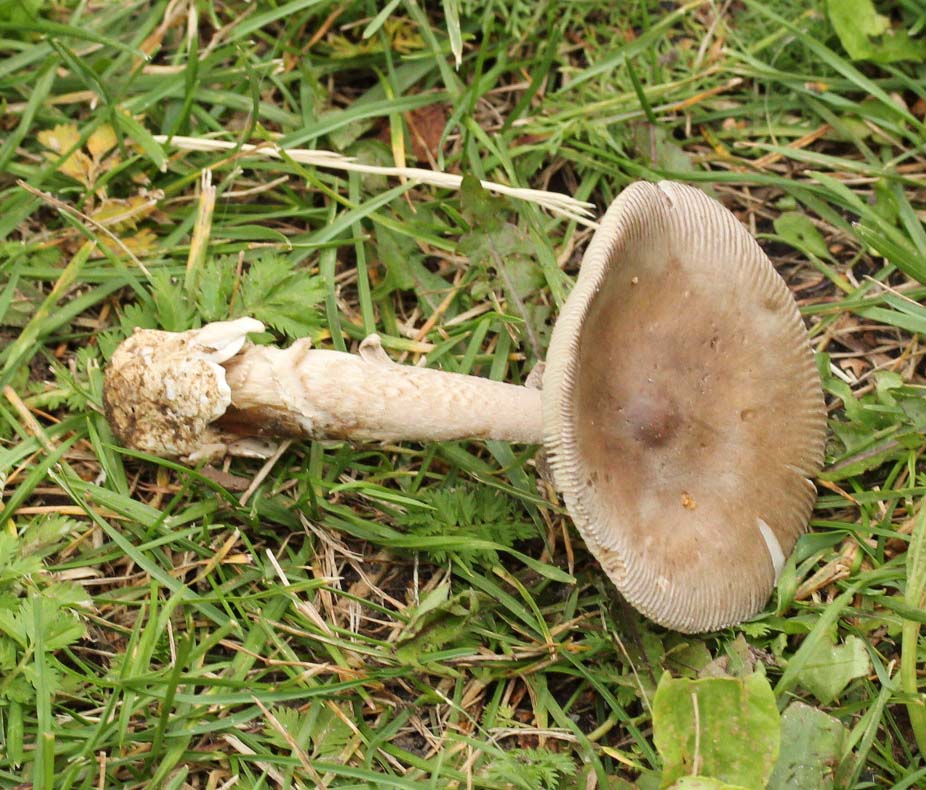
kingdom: Fungi
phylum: Basidiomycota
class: Agaricomycetes
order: Agaricales
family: Amanitaceae
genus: Amanita
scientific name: Amanita fulva
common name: brun kam-fluesvamp
